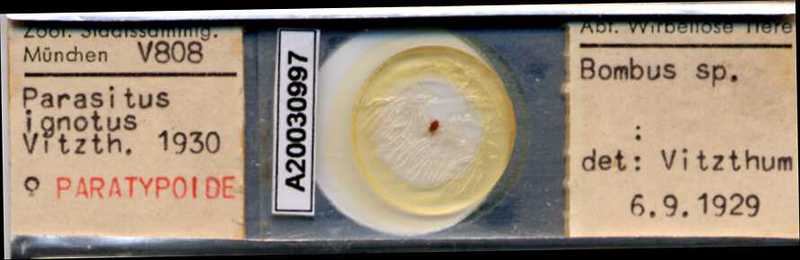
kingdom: Animalia
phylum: Arthropoda
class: Arachnida
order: Mesostigmata
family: Parasitidae
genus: Parasitellus
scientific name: Parasitellus ignotus
